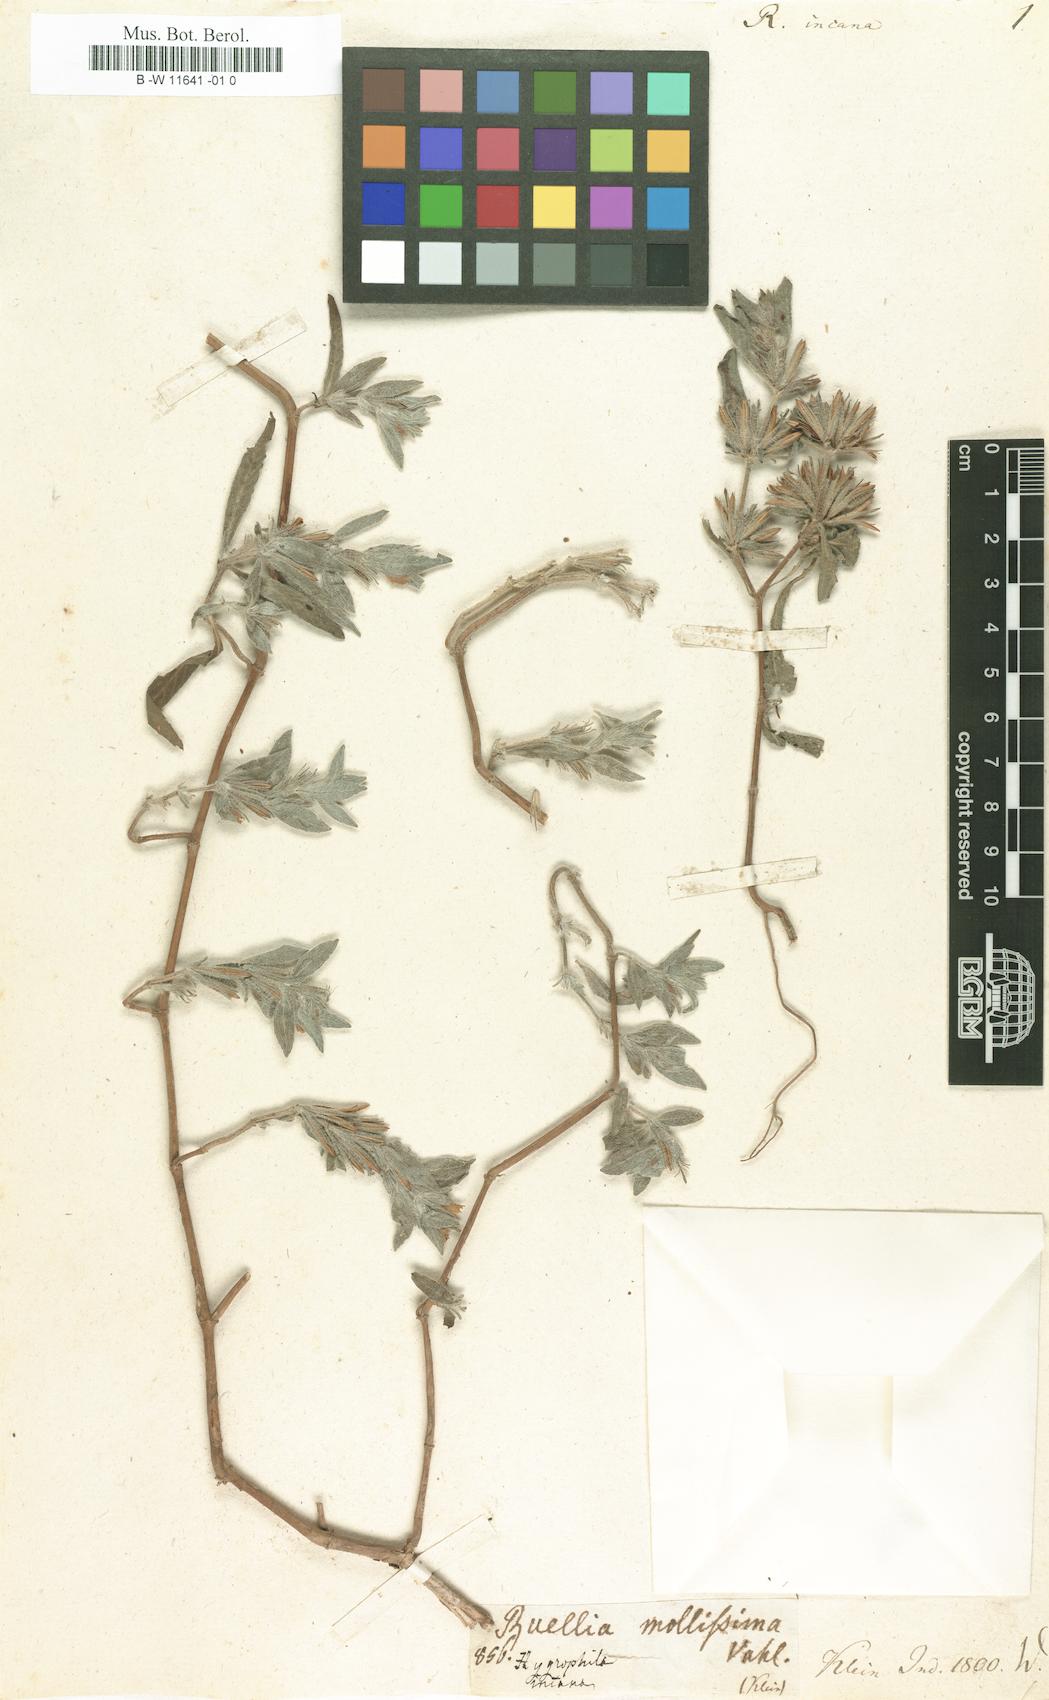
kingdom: Plantae
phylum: Tracheophyta
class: Magnoliopsida
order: Lamiales
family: Acanthaceae
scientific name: Acanthaceae
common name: Acanthaceae
